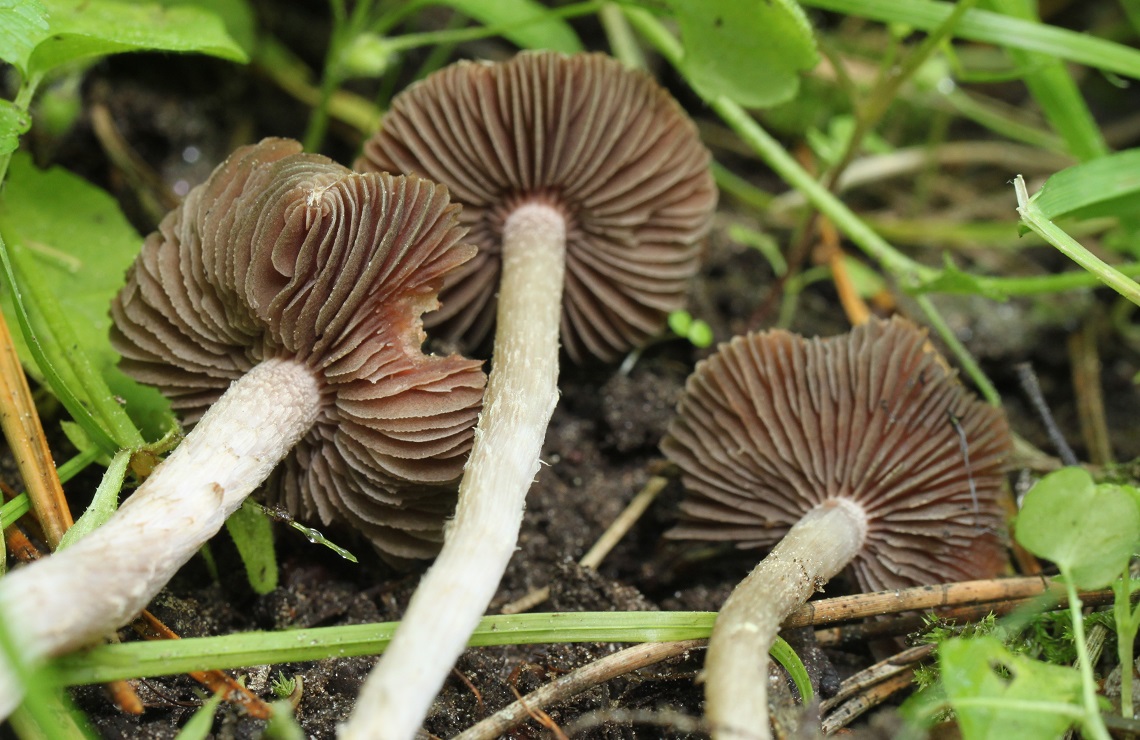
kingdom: Fungi
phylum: Basidiomycota
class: Agaricomycetes
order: Agaricales
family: Psathyrellaceae
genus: Psathyrella
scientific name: Psathyrella bipellis
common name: vinrød mørkhat
